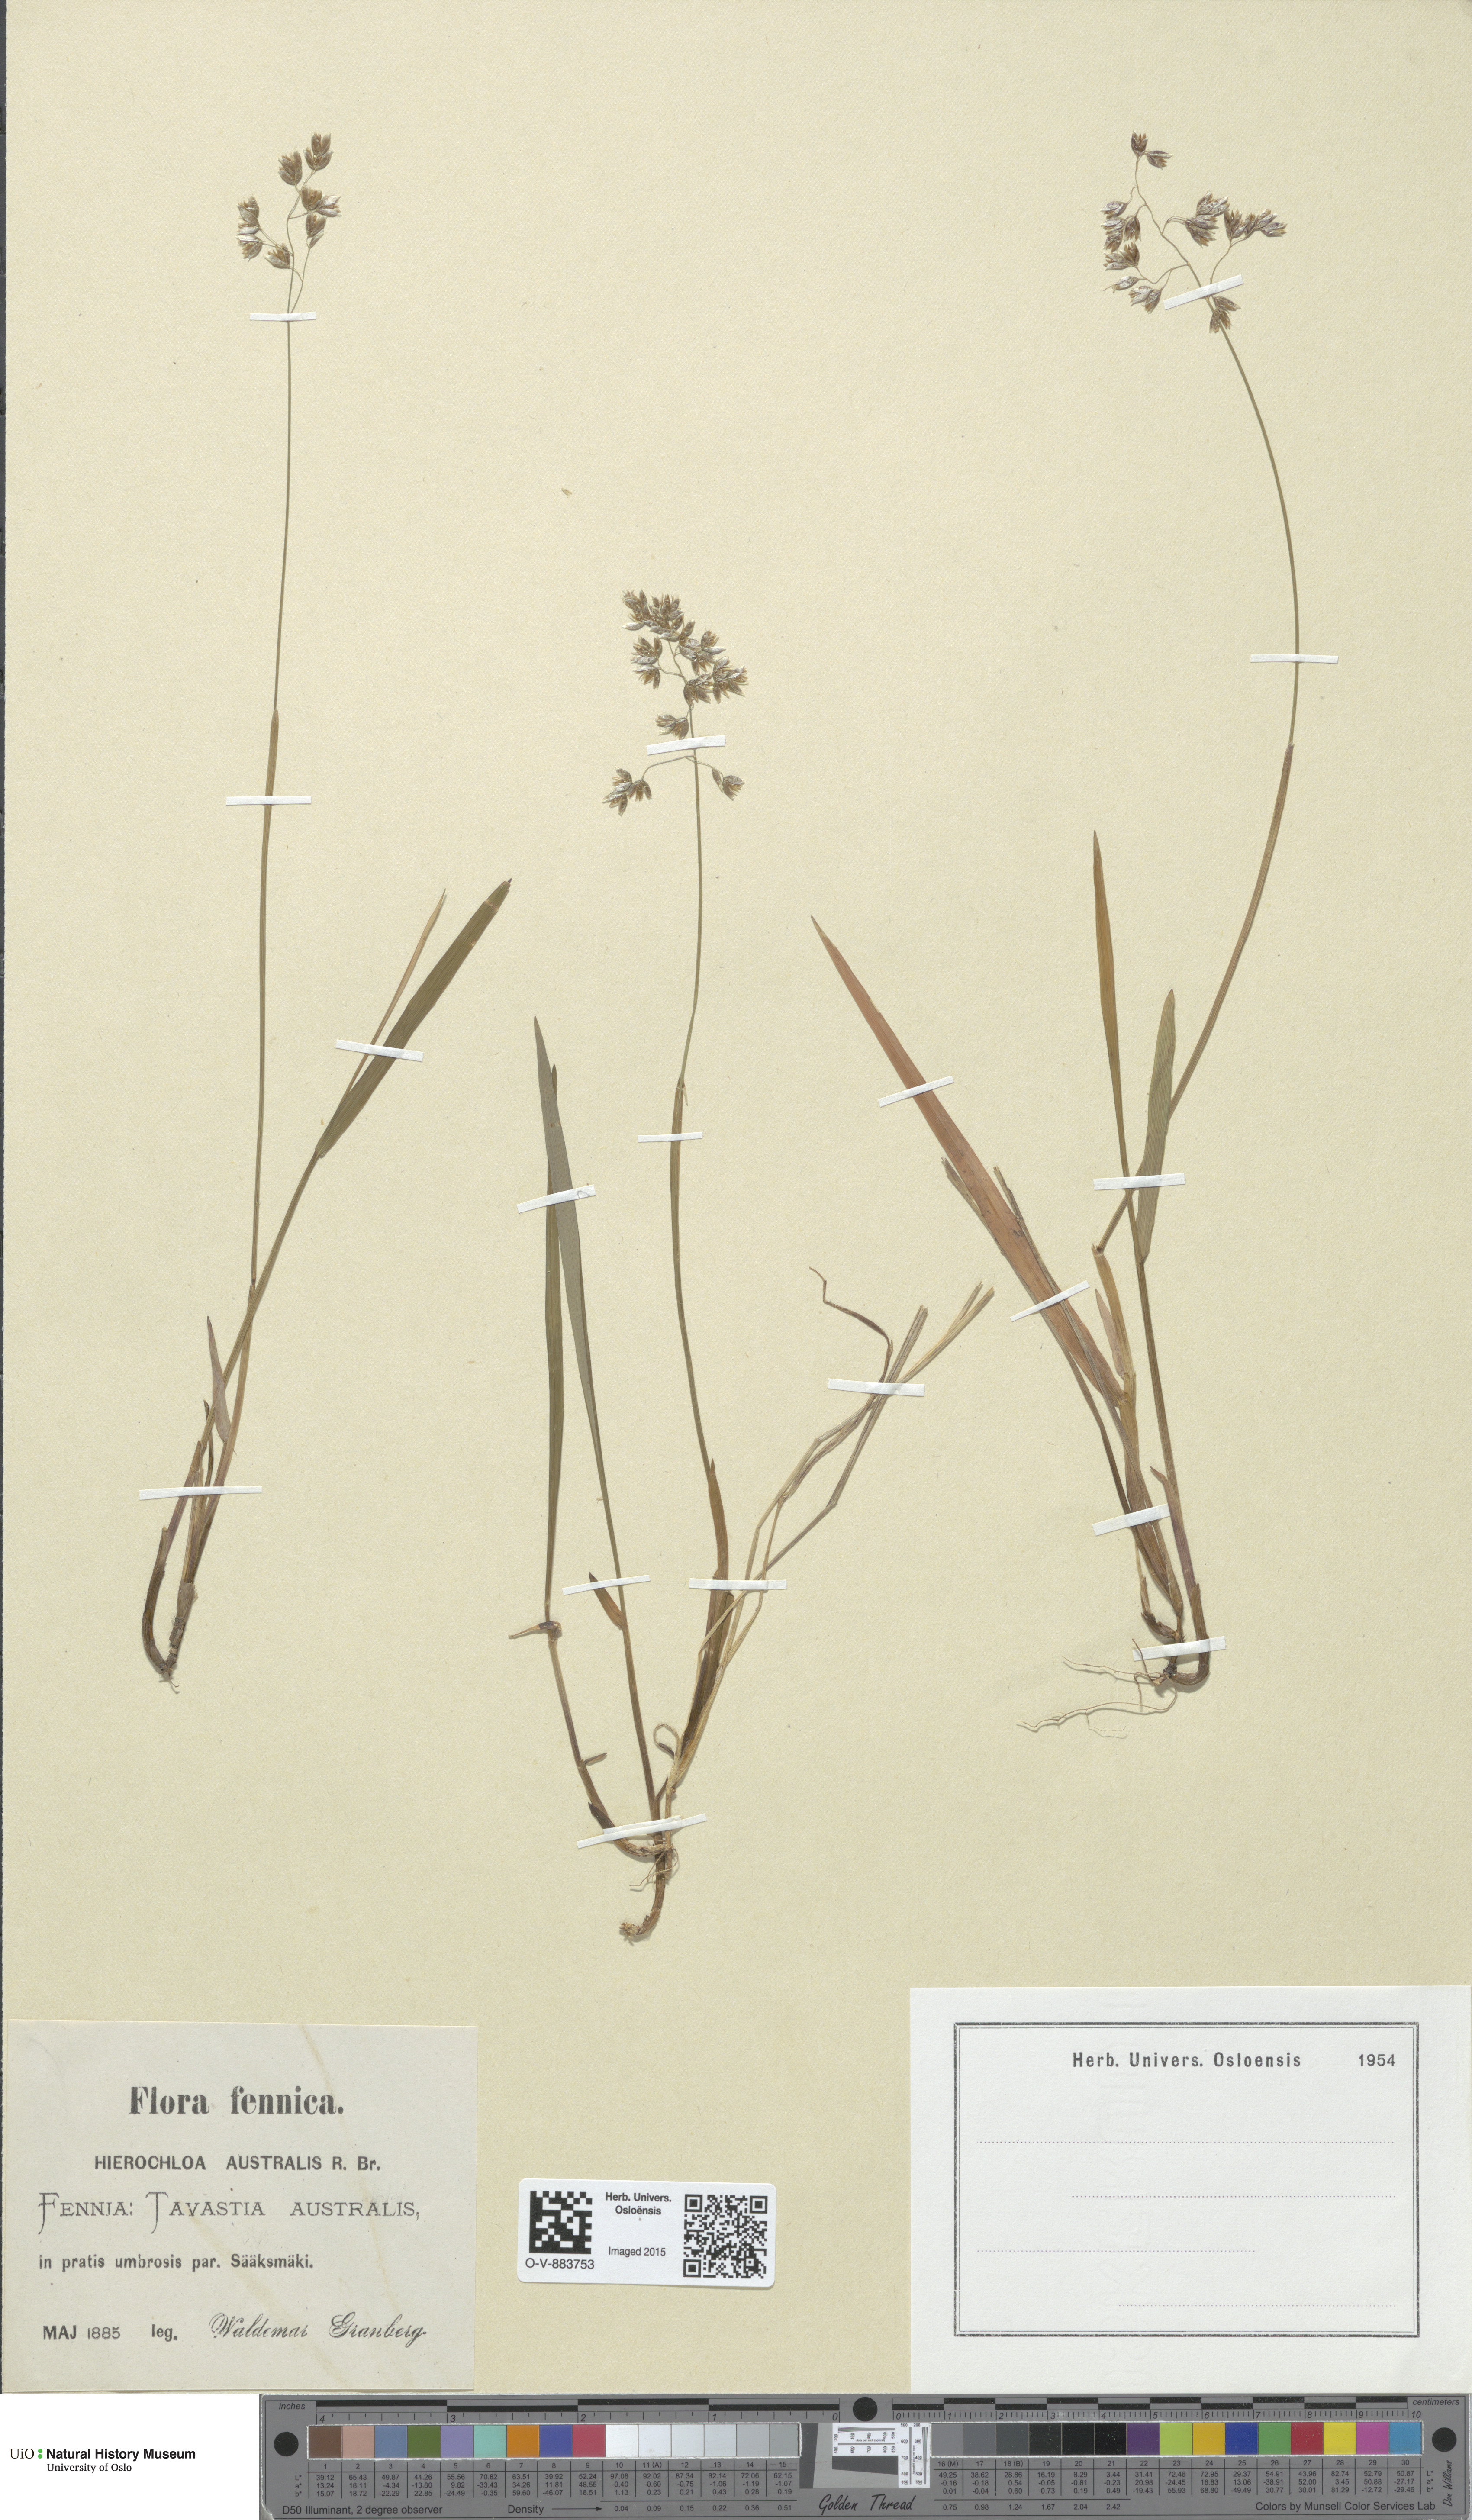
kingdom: Plantae
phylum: Tracheophyta
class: Liliopsida
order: Poales
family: Poaceae
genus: Anthoxanthum
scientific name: Anthoxanthum australe
